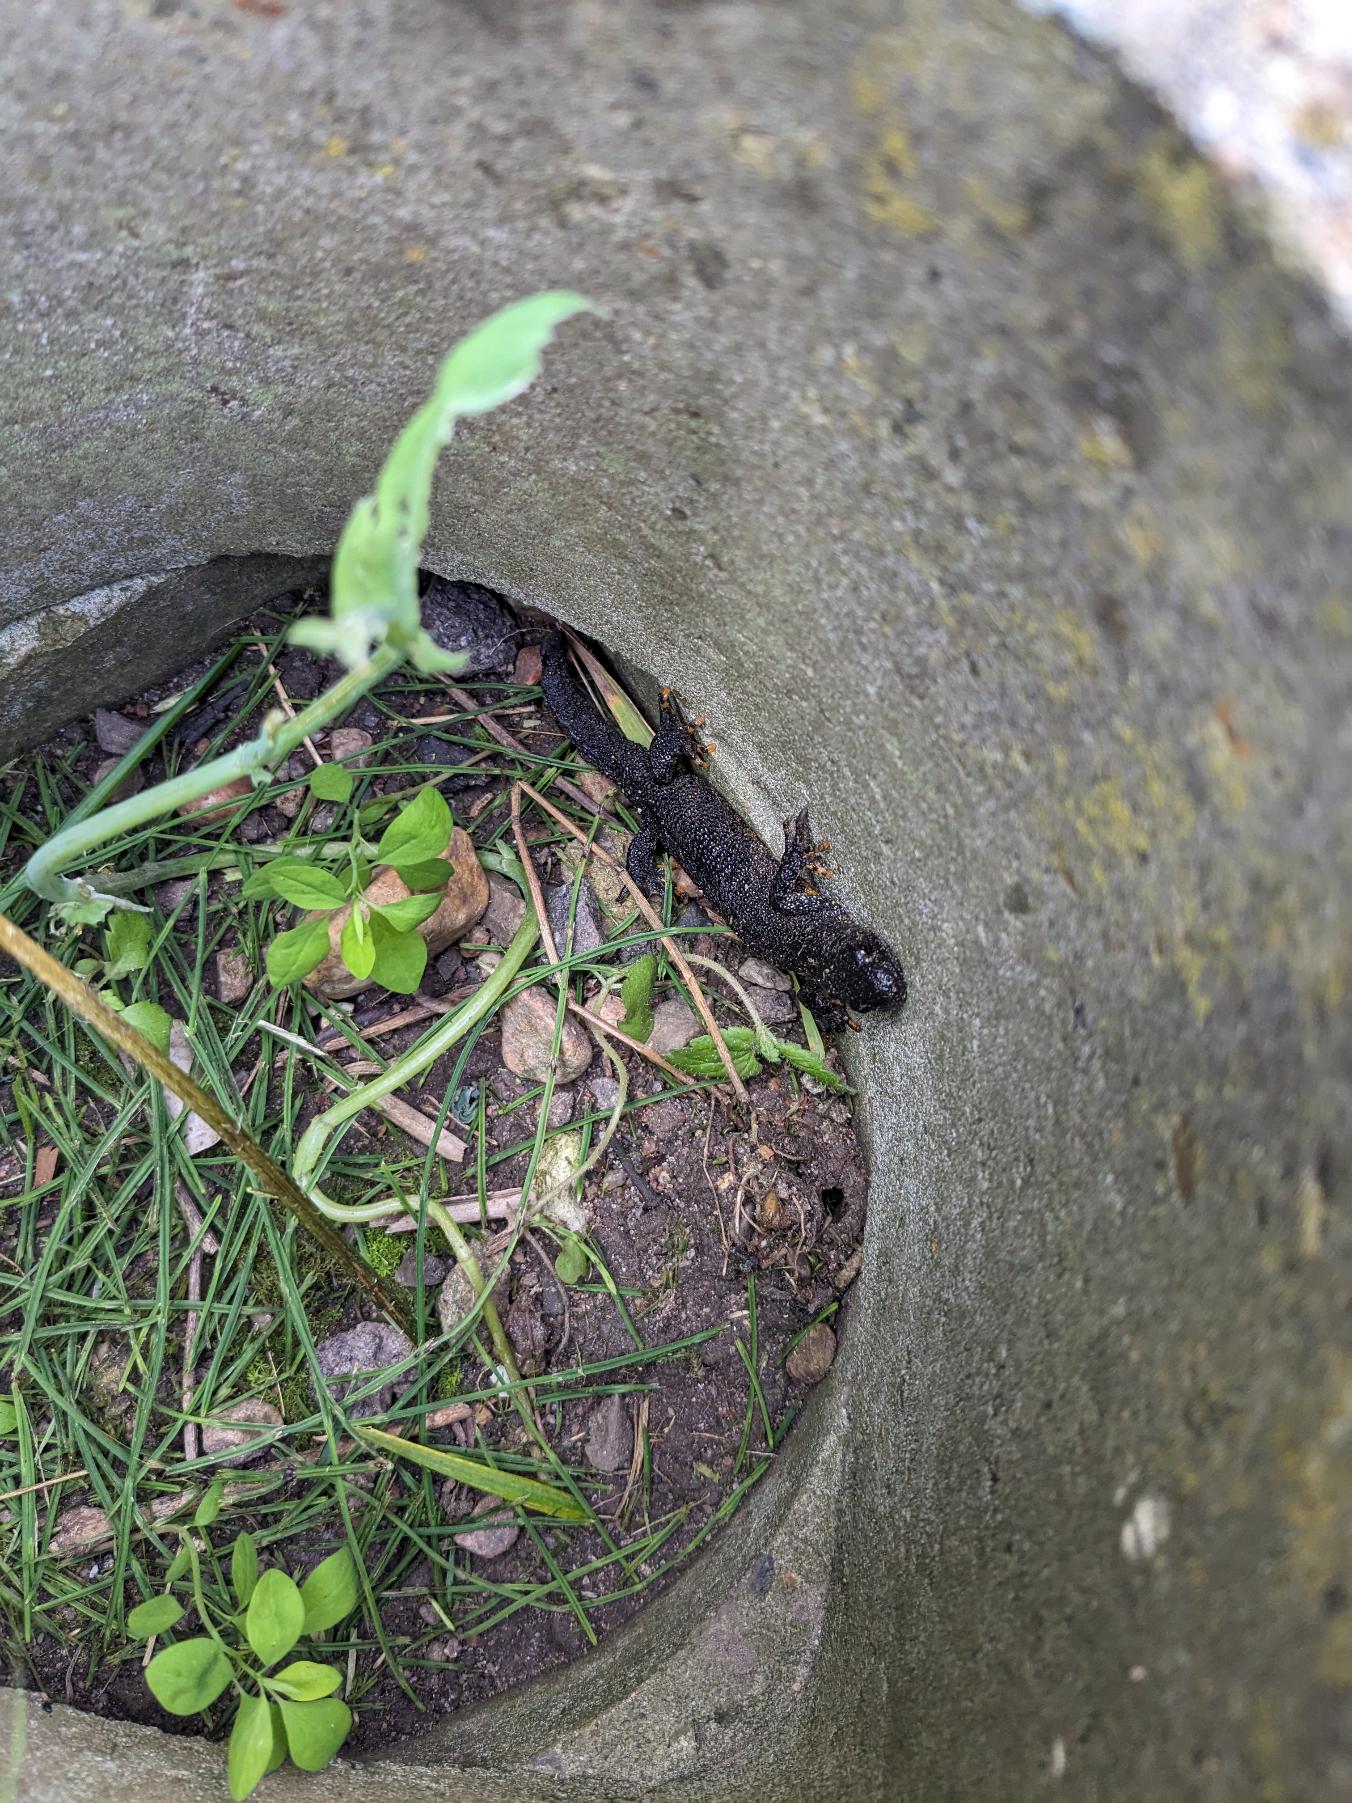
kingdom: Animalia
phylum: Chordata
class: Amphibia
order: Caudata
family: Salamandridae
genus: Triturus
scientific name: Triturus cristatus
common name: Stor vandsalamander
